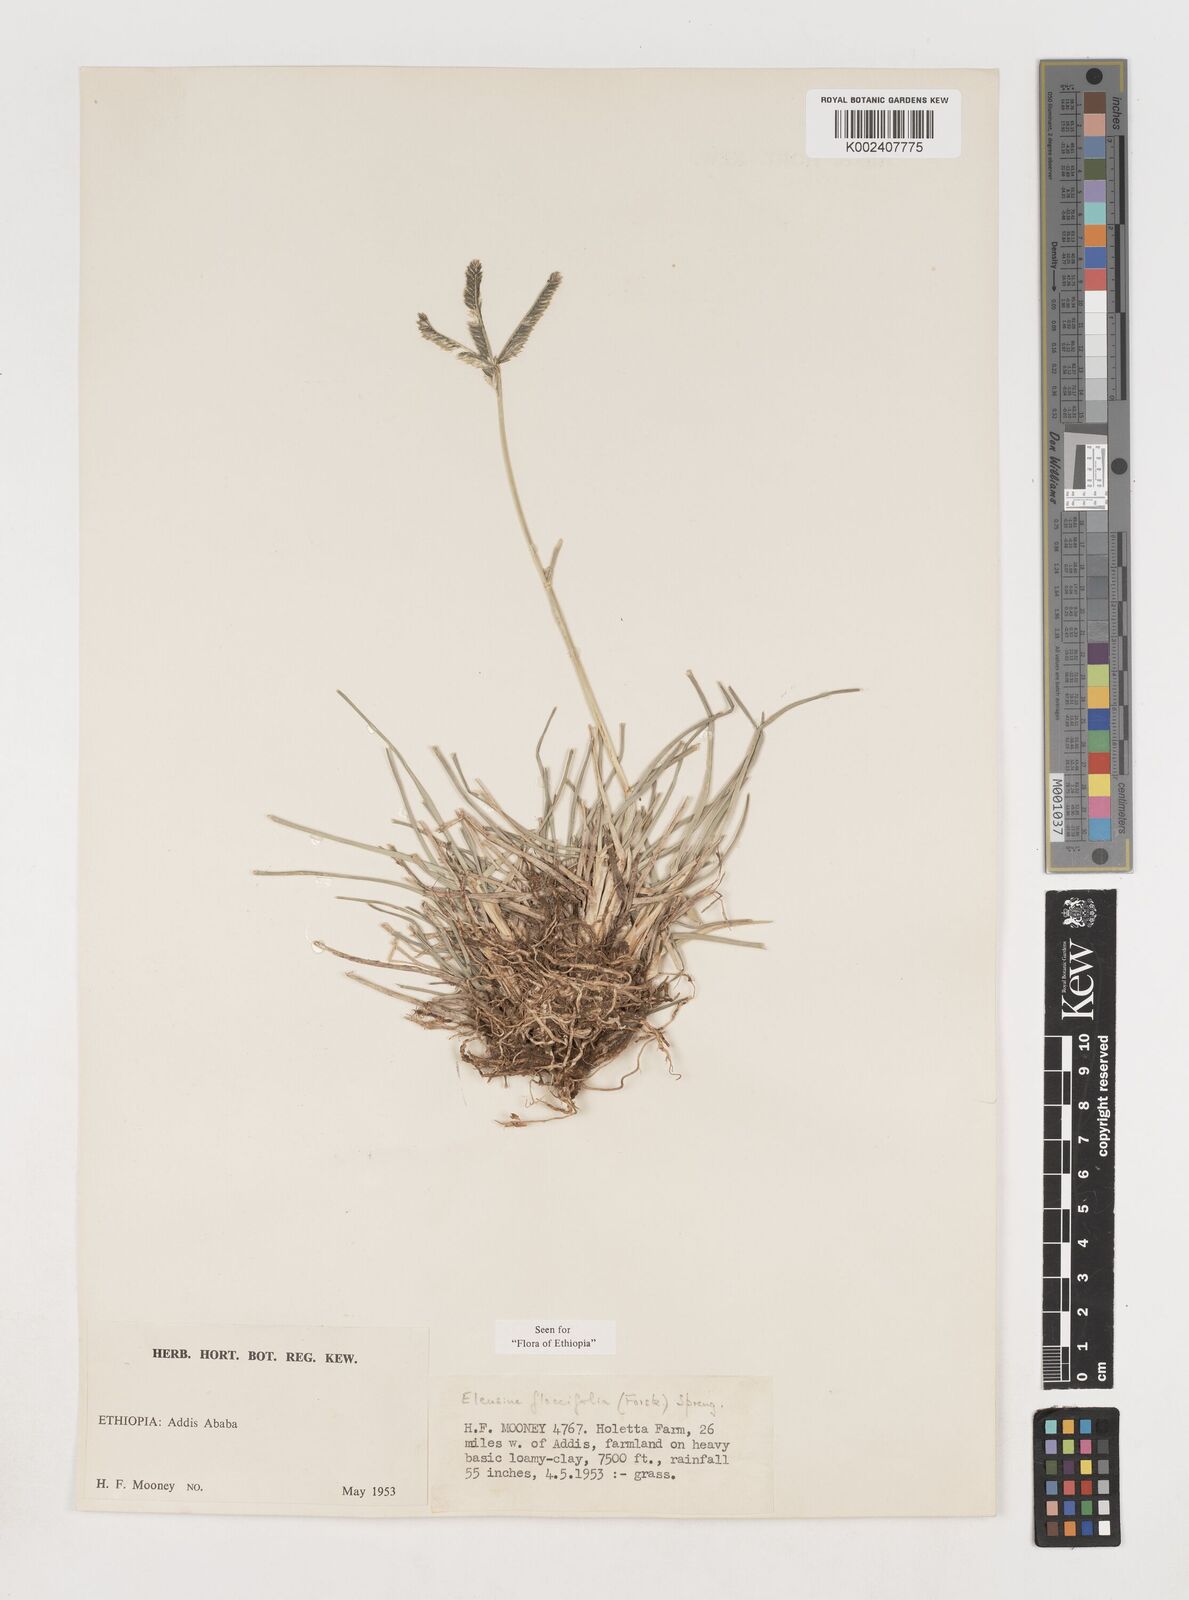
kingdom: Plantae
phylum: Tracheophyta
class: Liliopsida
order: Poales
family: Poaceae
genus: Eleusine
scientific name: Eleusine floccifolia
